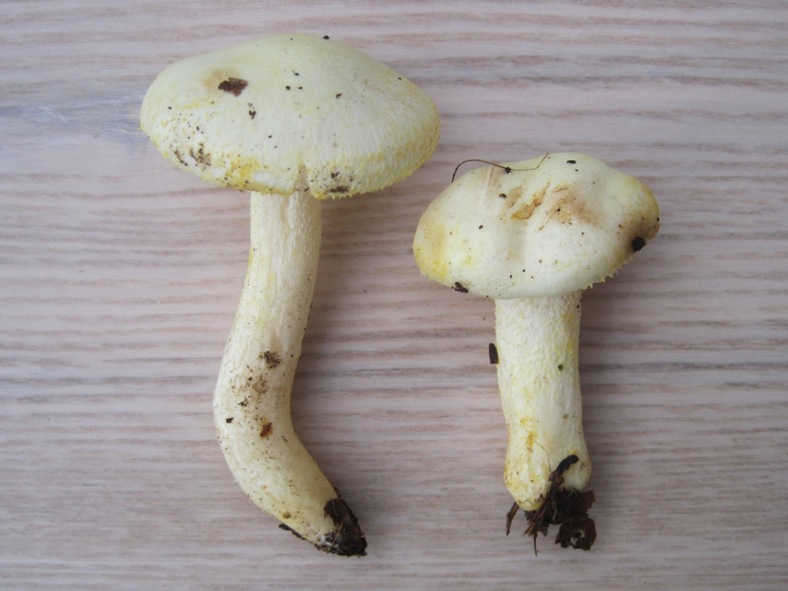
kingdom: Fungi
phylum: Basidiomycota
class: Agaricomycetes
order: Agaricales
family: Hygrophoraceae
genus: Hygrophorus
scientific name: Hygrophorus chrysodon
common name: gulfnugget sneglehat
